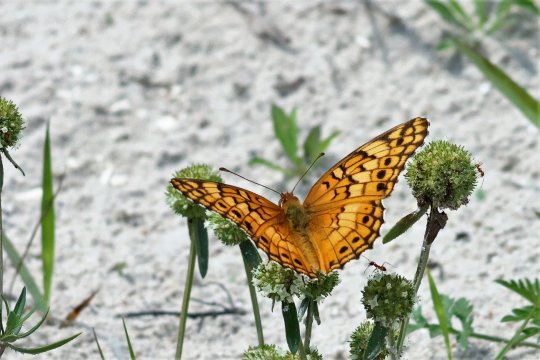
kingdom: Animalia
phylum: Arthropoda
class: Insecta
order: Lepidoptera
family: Nymphalidae
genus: Euptoieta
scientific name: Euptoieta claudia
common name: Variegated Fritillary
